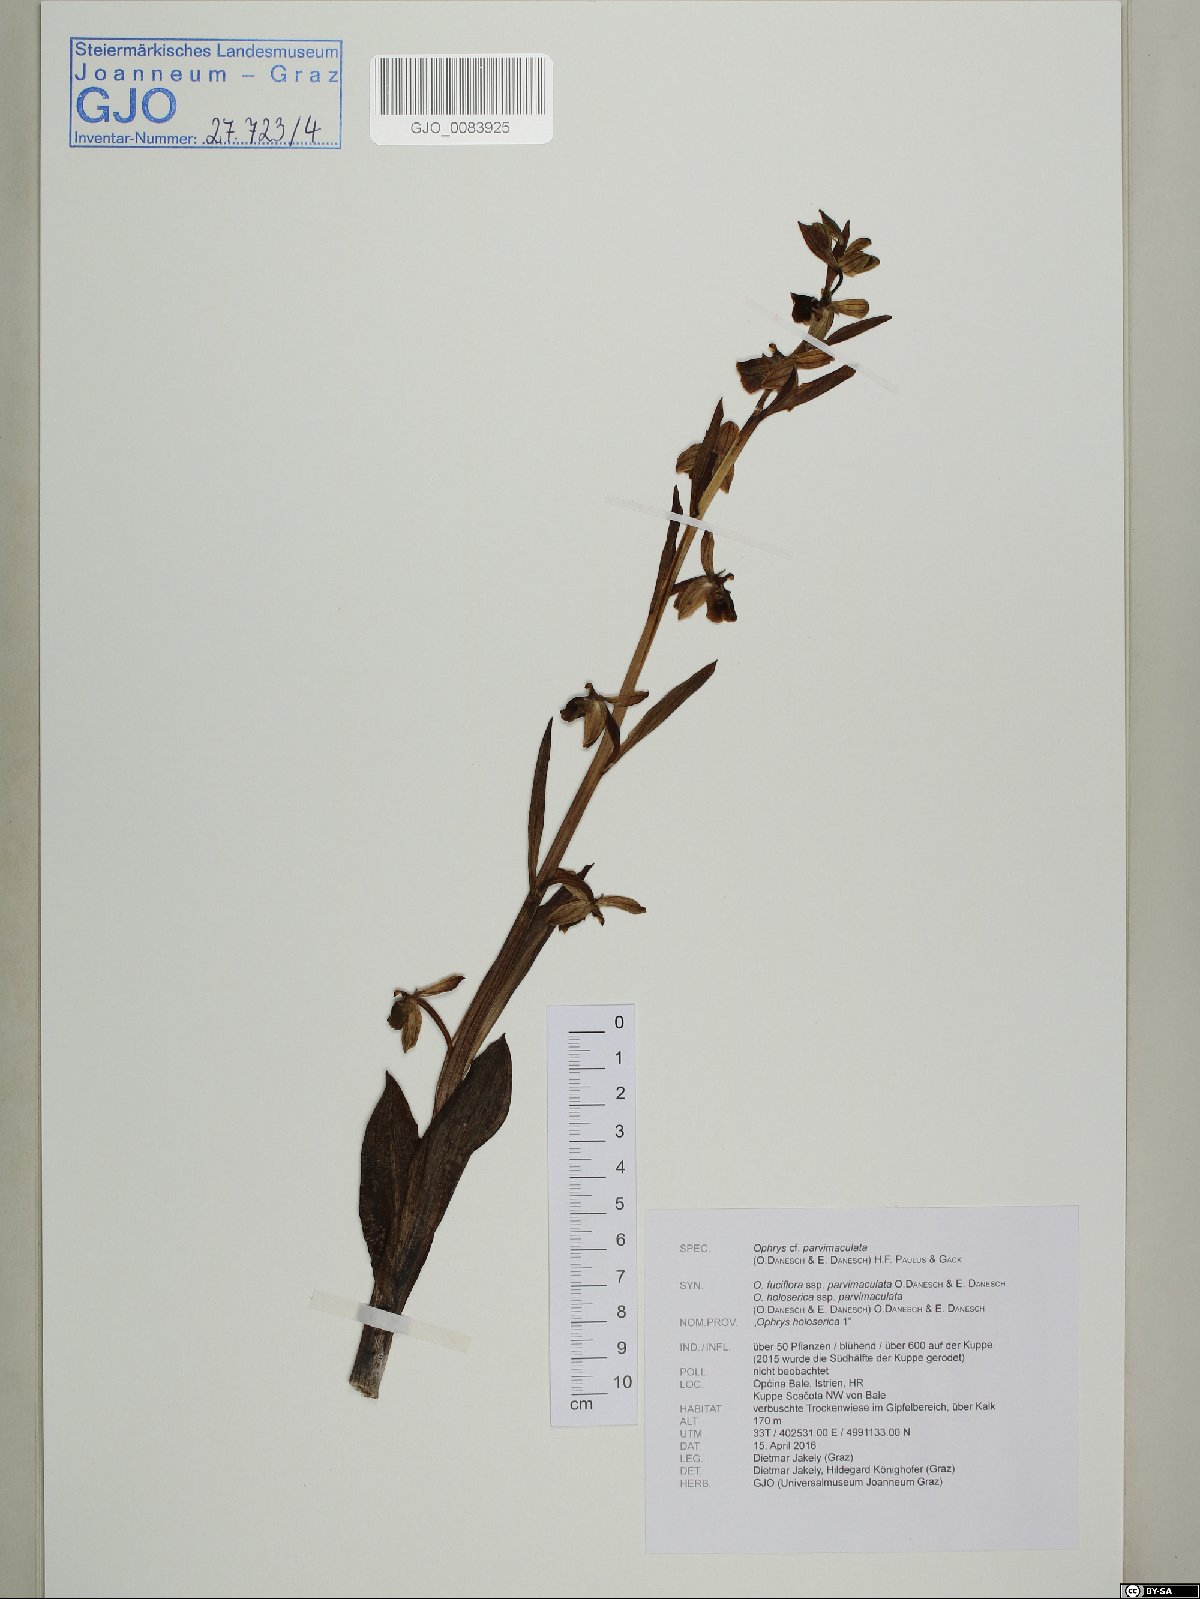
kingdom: Plantae
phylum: Tracheophyta
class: Liliopsida
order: Asparagales
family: Orchidaceae
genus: Ophrys
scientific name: Ophrys holosericea
